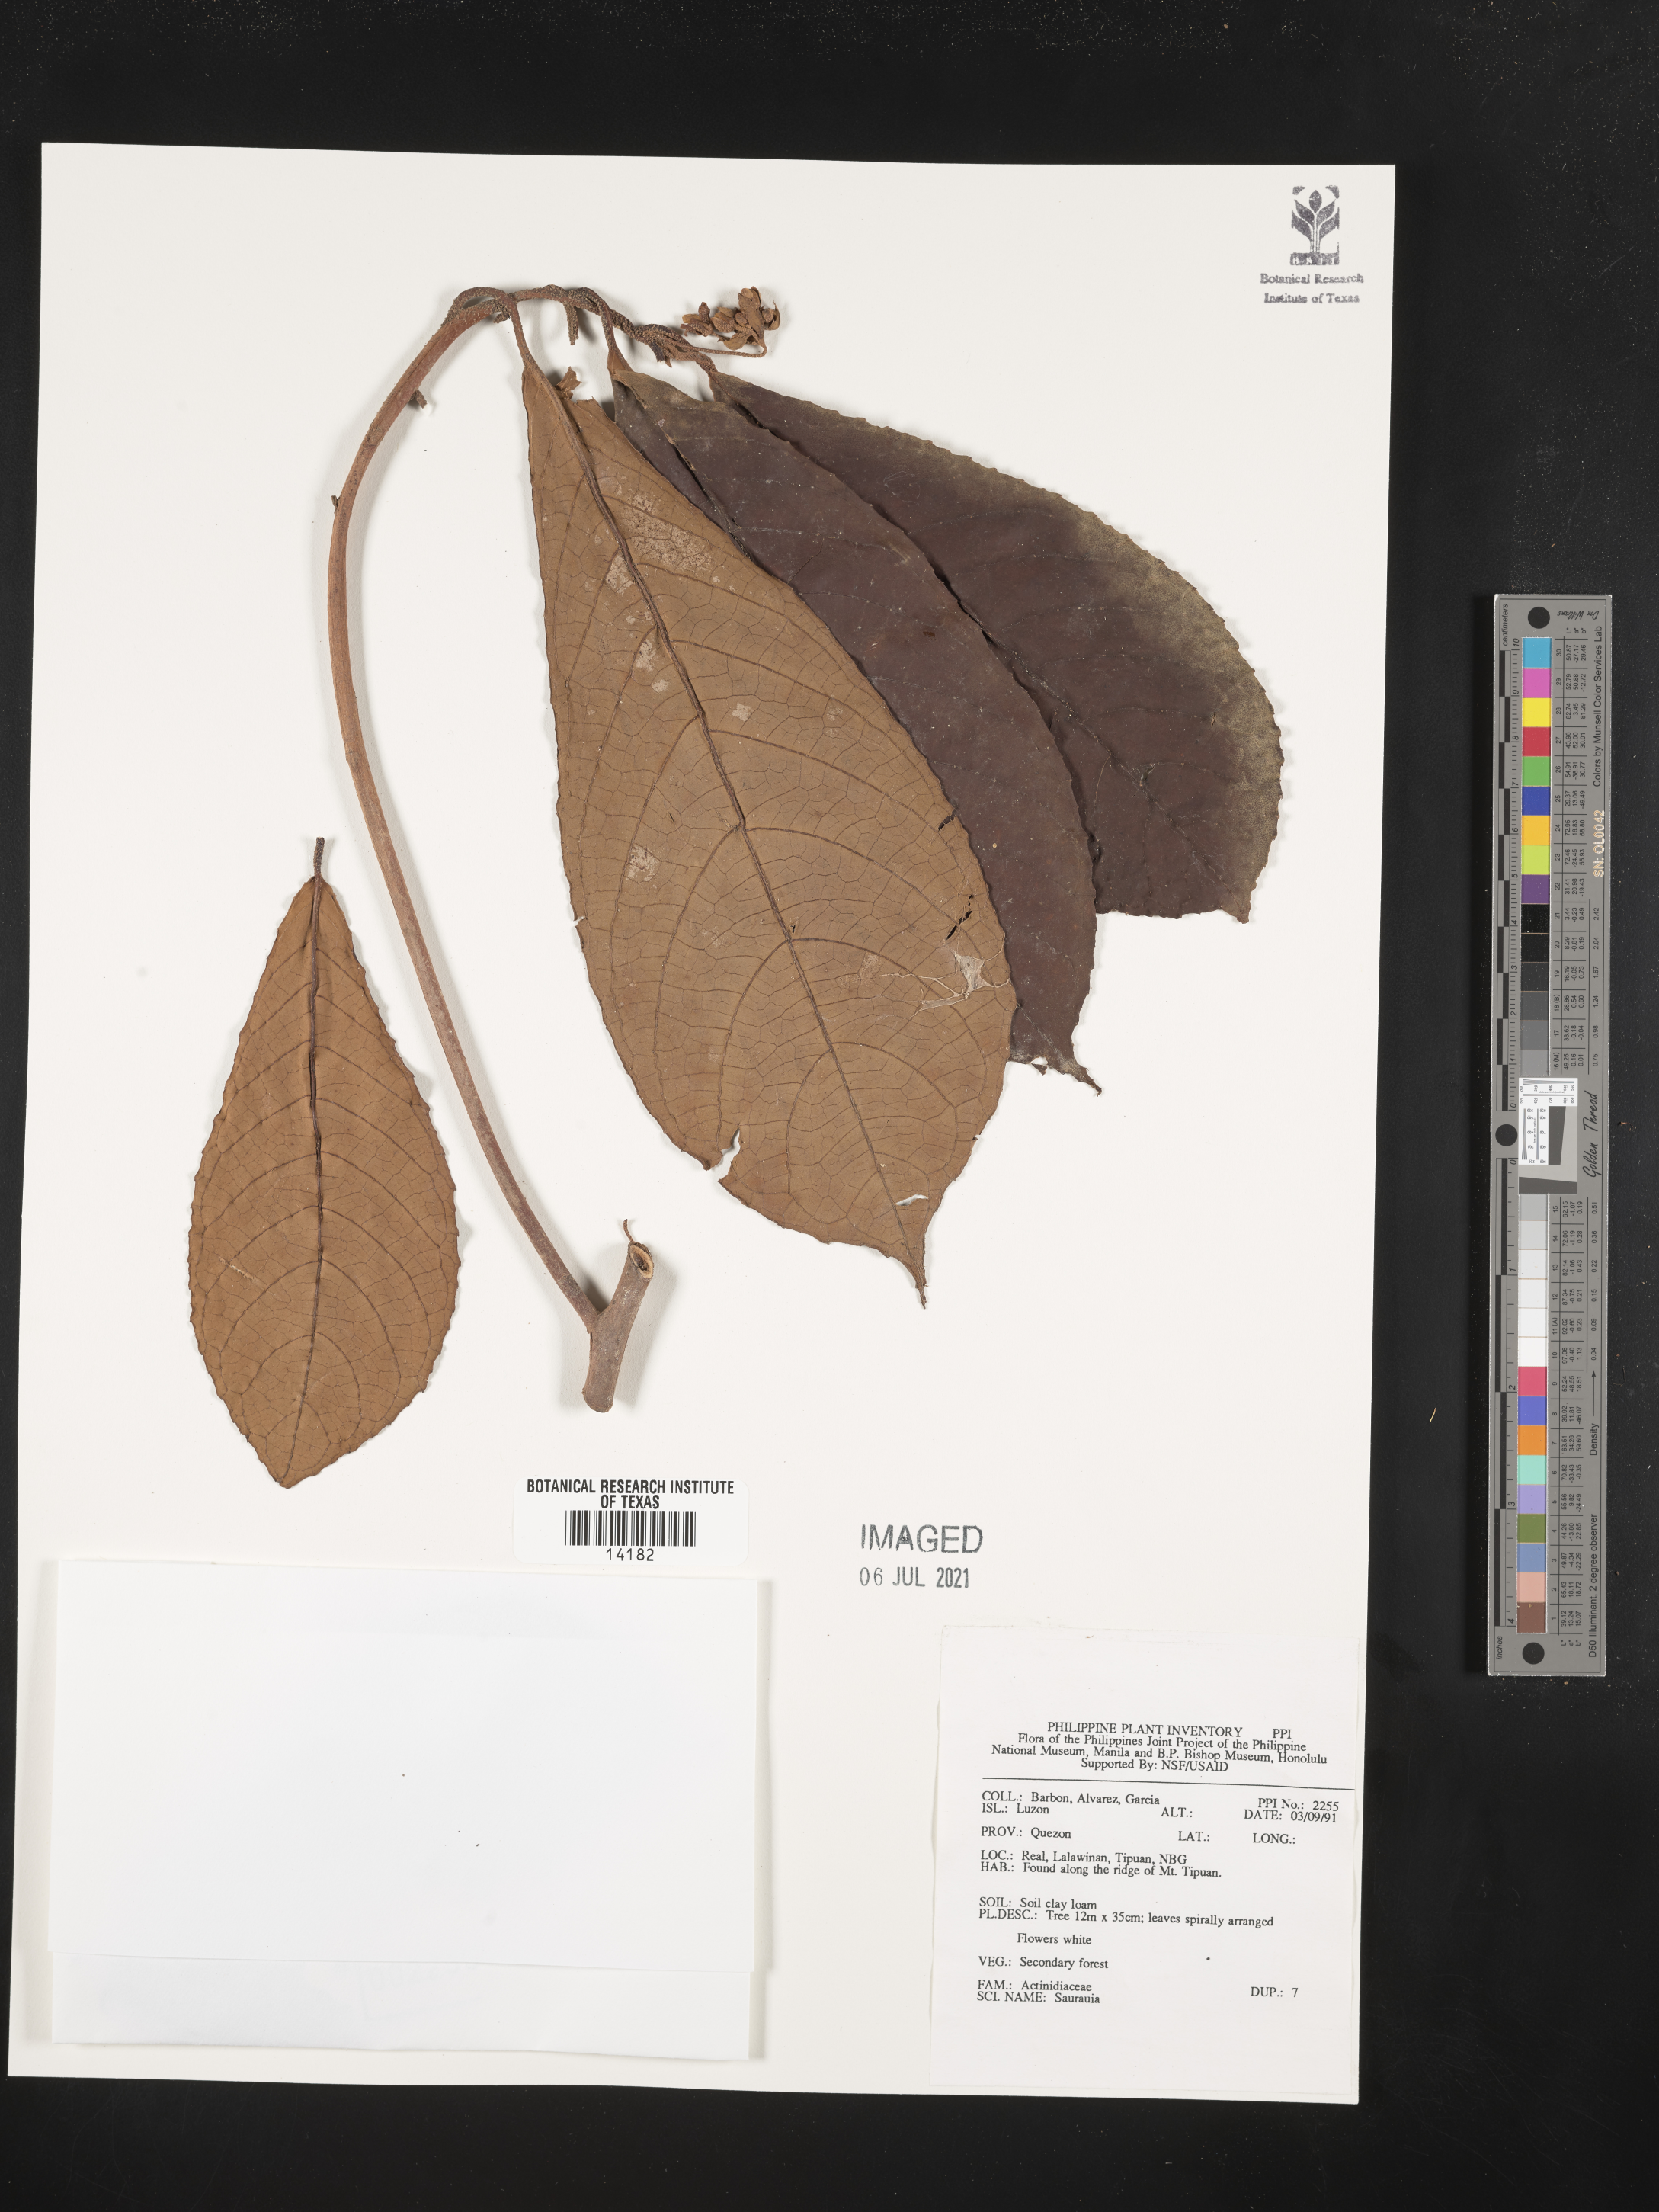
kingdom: Plantae
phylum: Tracheophyta
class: Magnoliopsida
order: Ericales
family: Actinidiaceae
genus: Saurauia
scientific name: Saurauia
